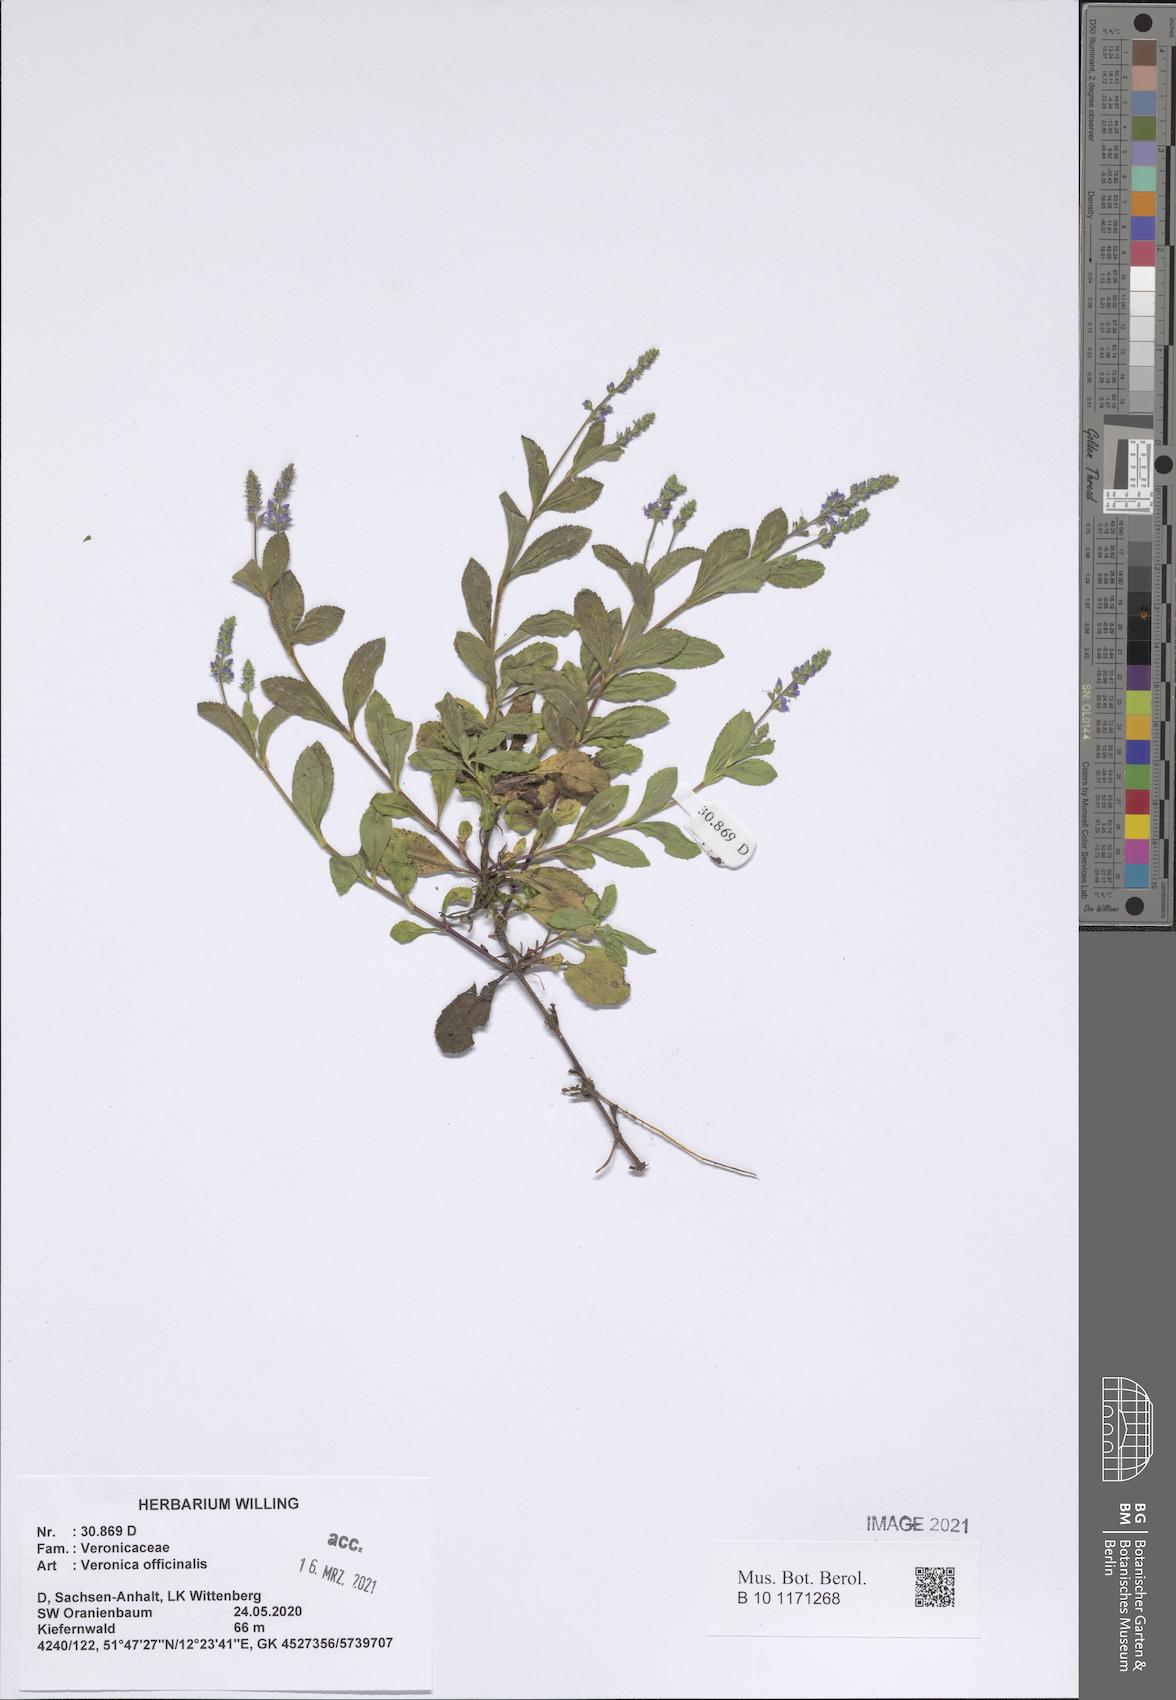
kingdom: Plantae
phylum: Tracheophyta
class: Magnoliopsida
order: Lamiales
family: Plantaginaceae
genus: Veronica
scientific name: Veronica officinalis
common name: Common speedwell
